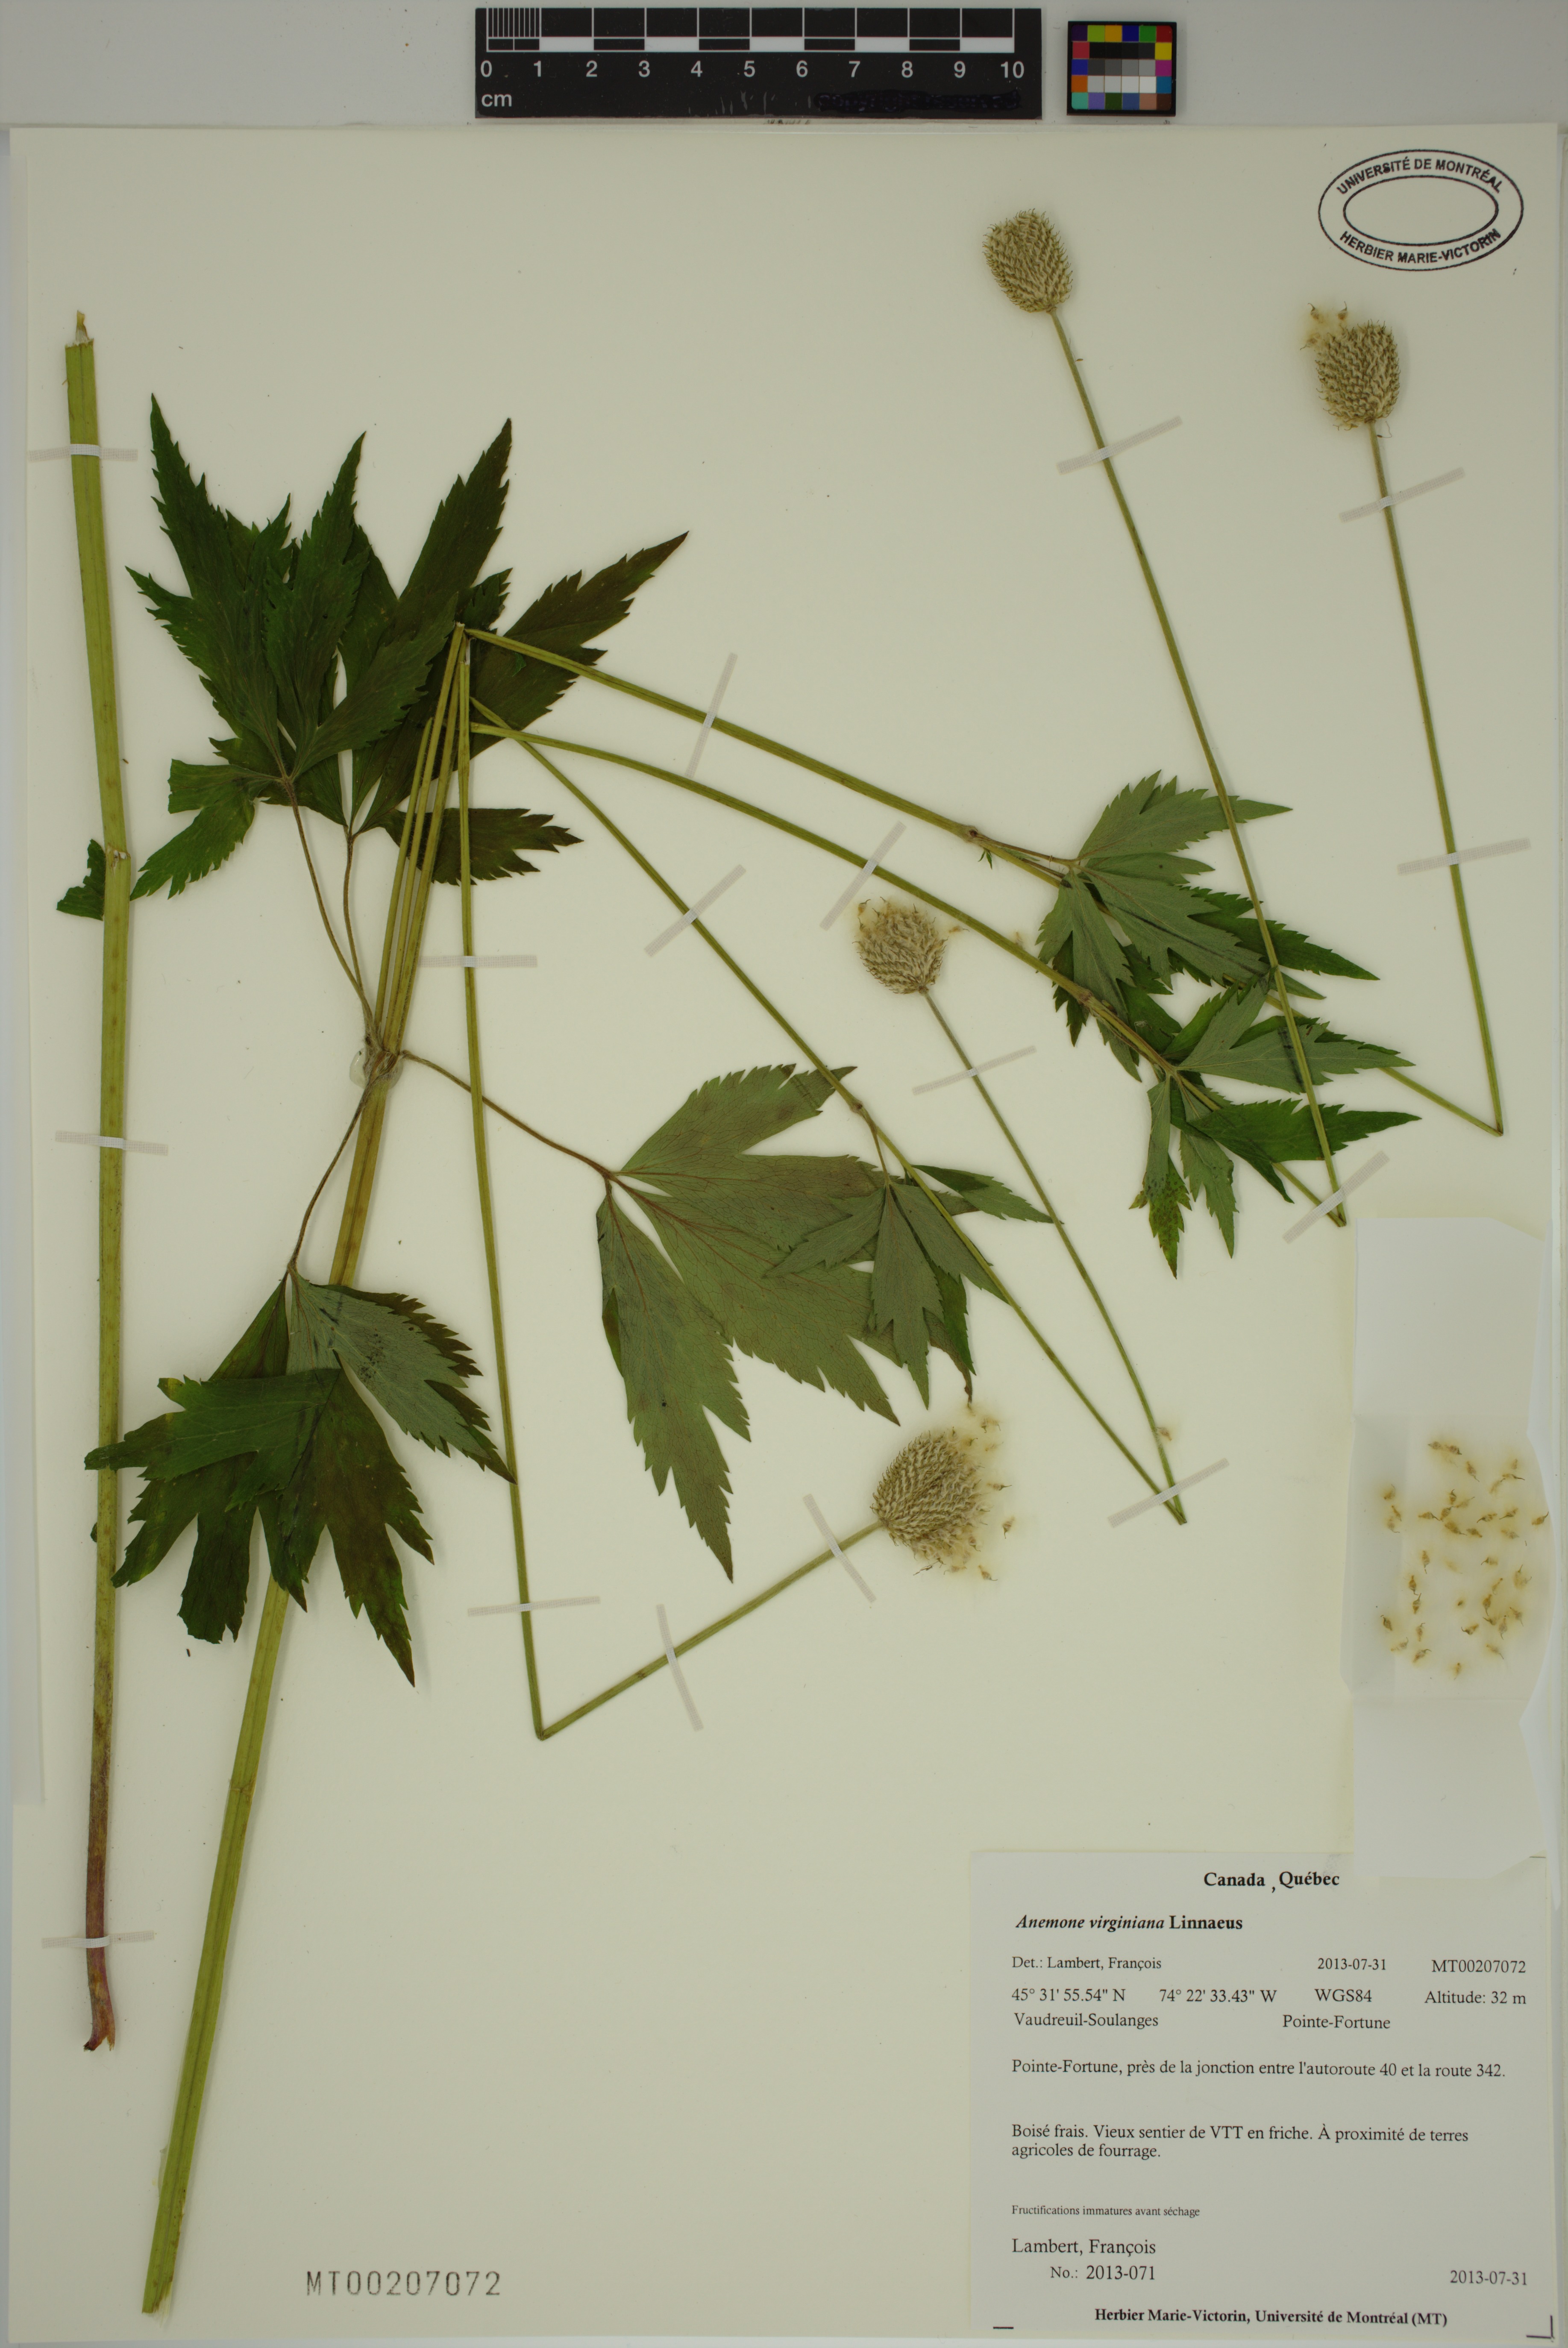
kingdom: Plantae
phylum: Tracheophyta
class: Magnoliopsida
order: Ranunculales
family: Ranunculaceae
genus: Anemone
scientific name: Anemone virginiana
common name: Tall anemone
